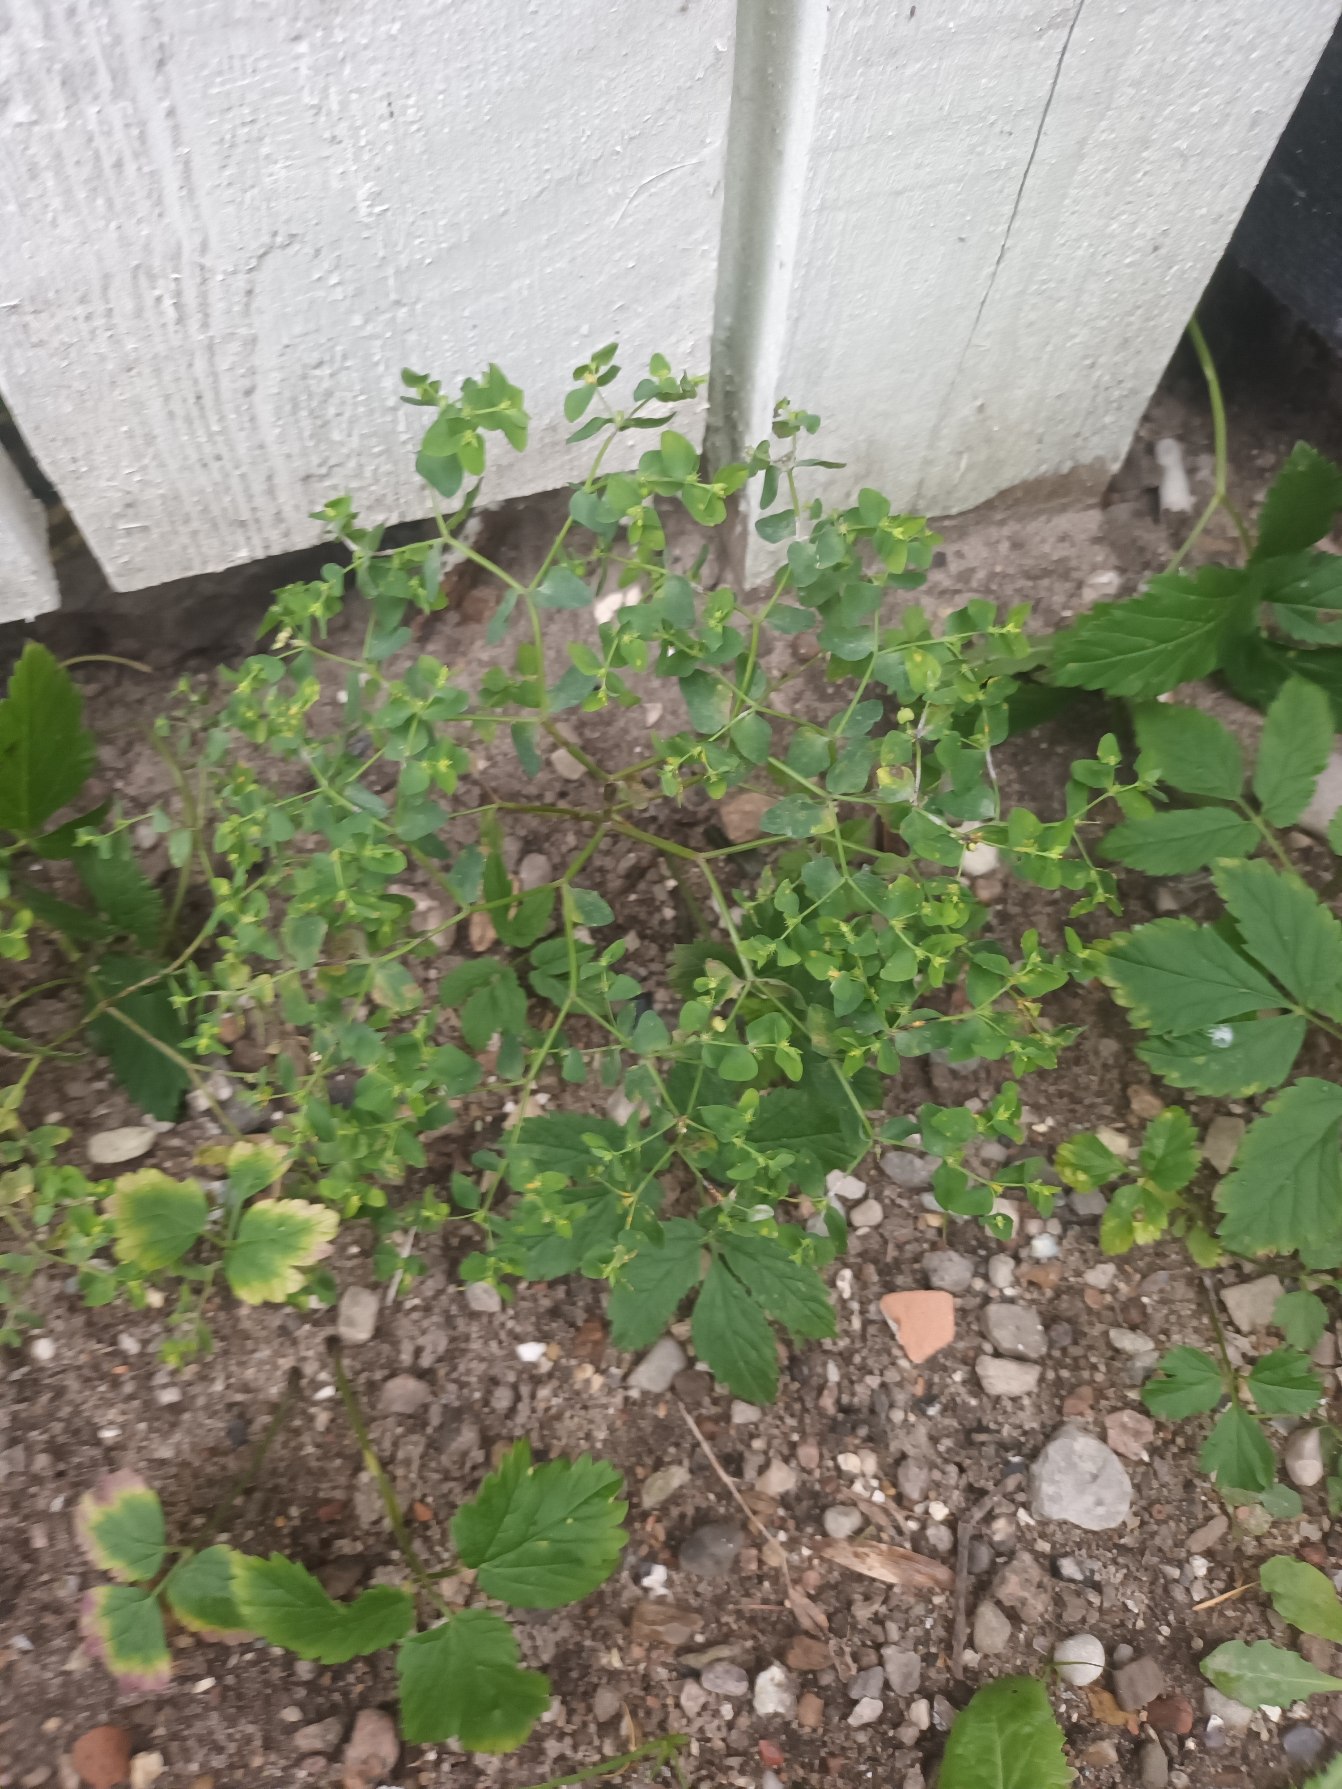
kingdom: Plantae
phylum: Tracheophyta
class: Magnoliopsida
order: Malpighiales
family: Euphorbiaceae
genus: Euphorbia
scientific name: Euphorbia peplus
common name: Gaffel-vortemælk
